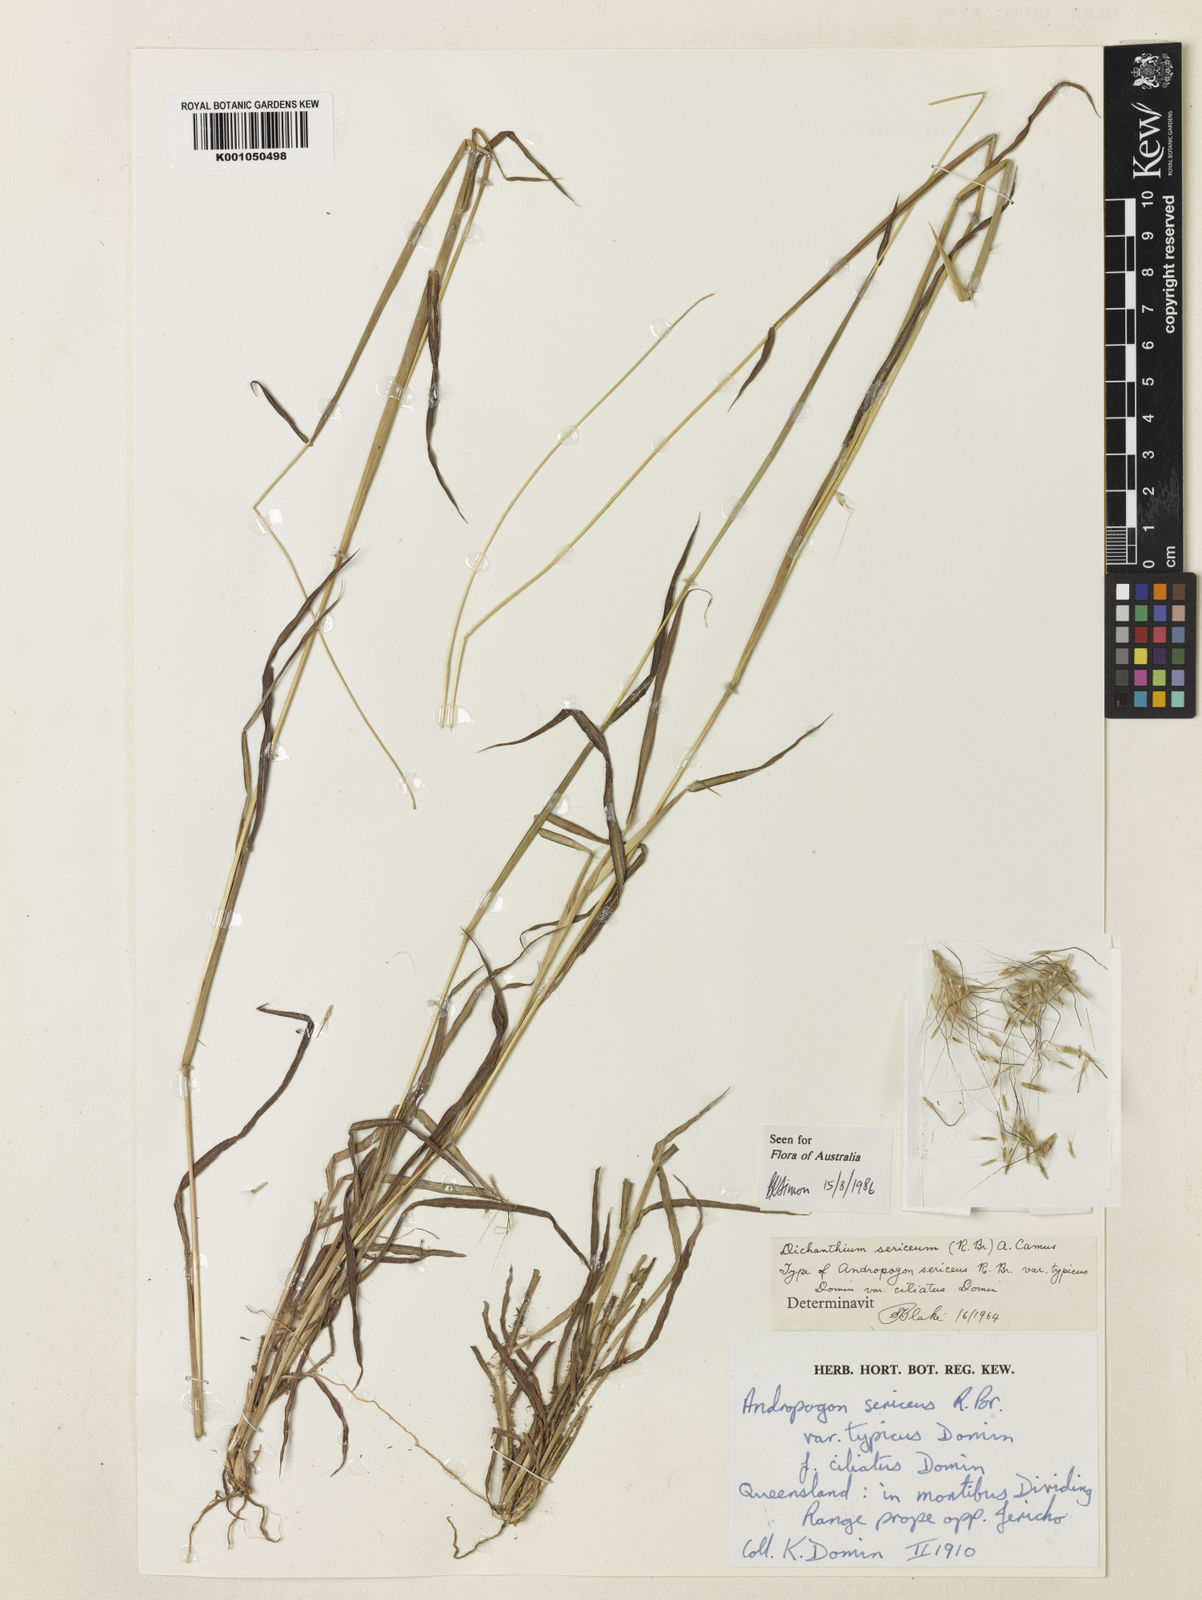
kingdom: Plantae
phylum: Tracheophyta
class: Liliopsida
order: Poales
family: Poaceae
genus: Dichanthium
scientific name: Dichanthium sericeum
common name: Silky bluestem
